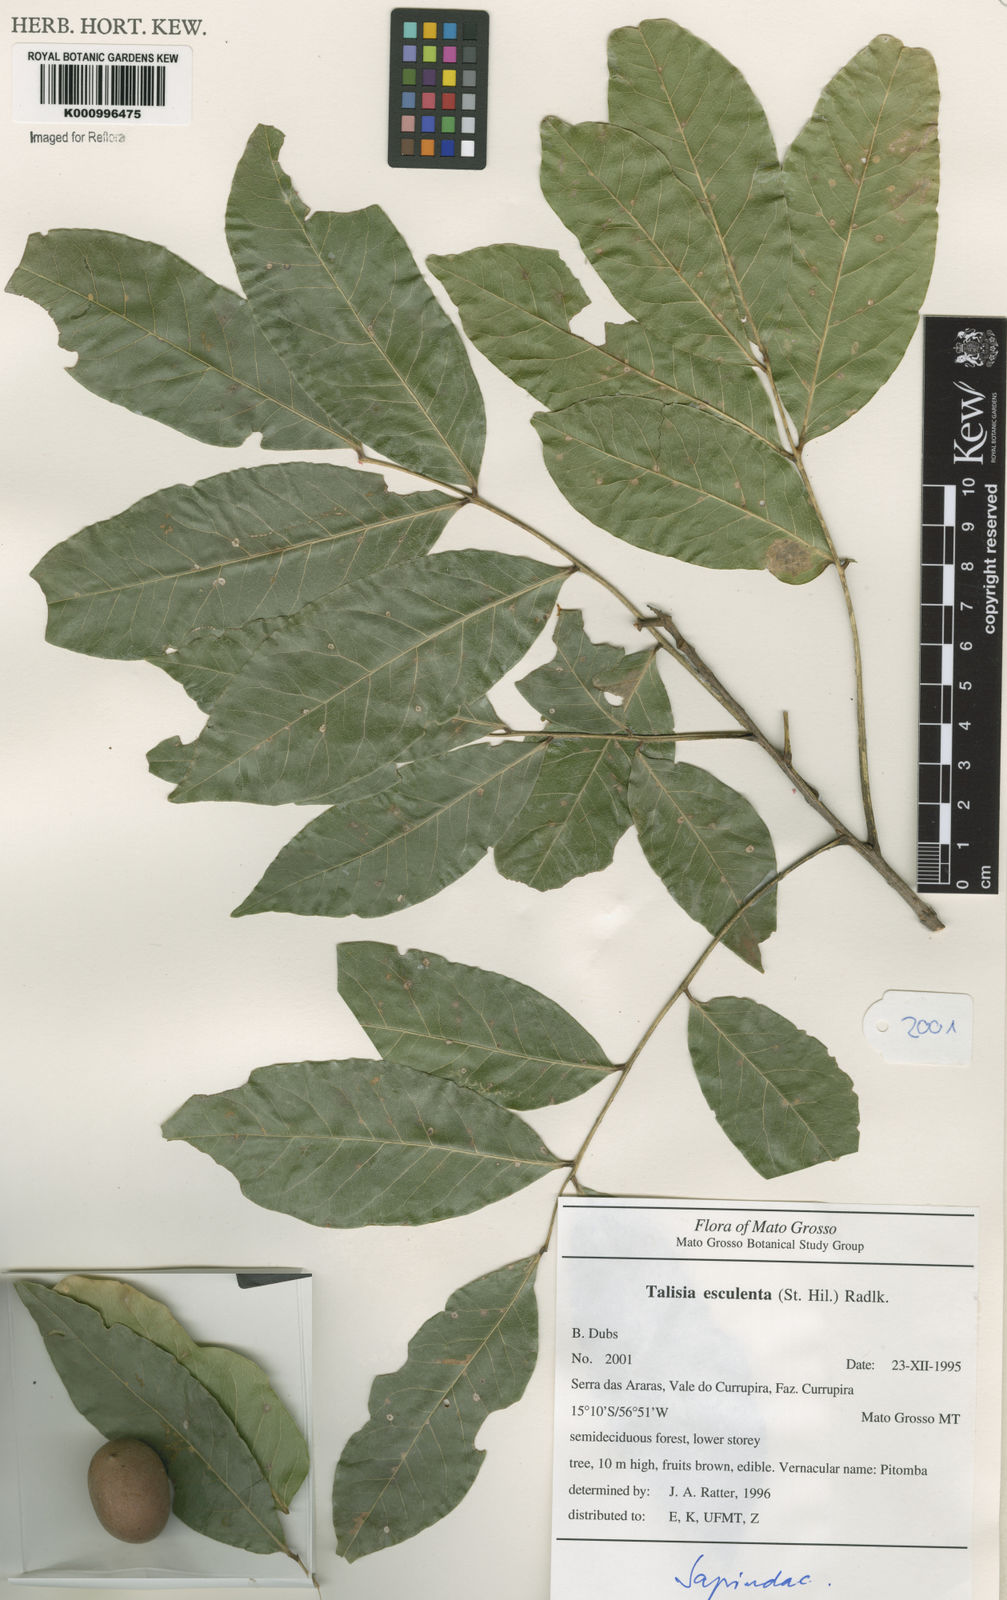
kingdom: Plantae
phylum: Tracheophyta
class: Magnoliopsida
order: Sapindales
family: Sapindaceae
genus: Talisia
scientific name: Talisia
